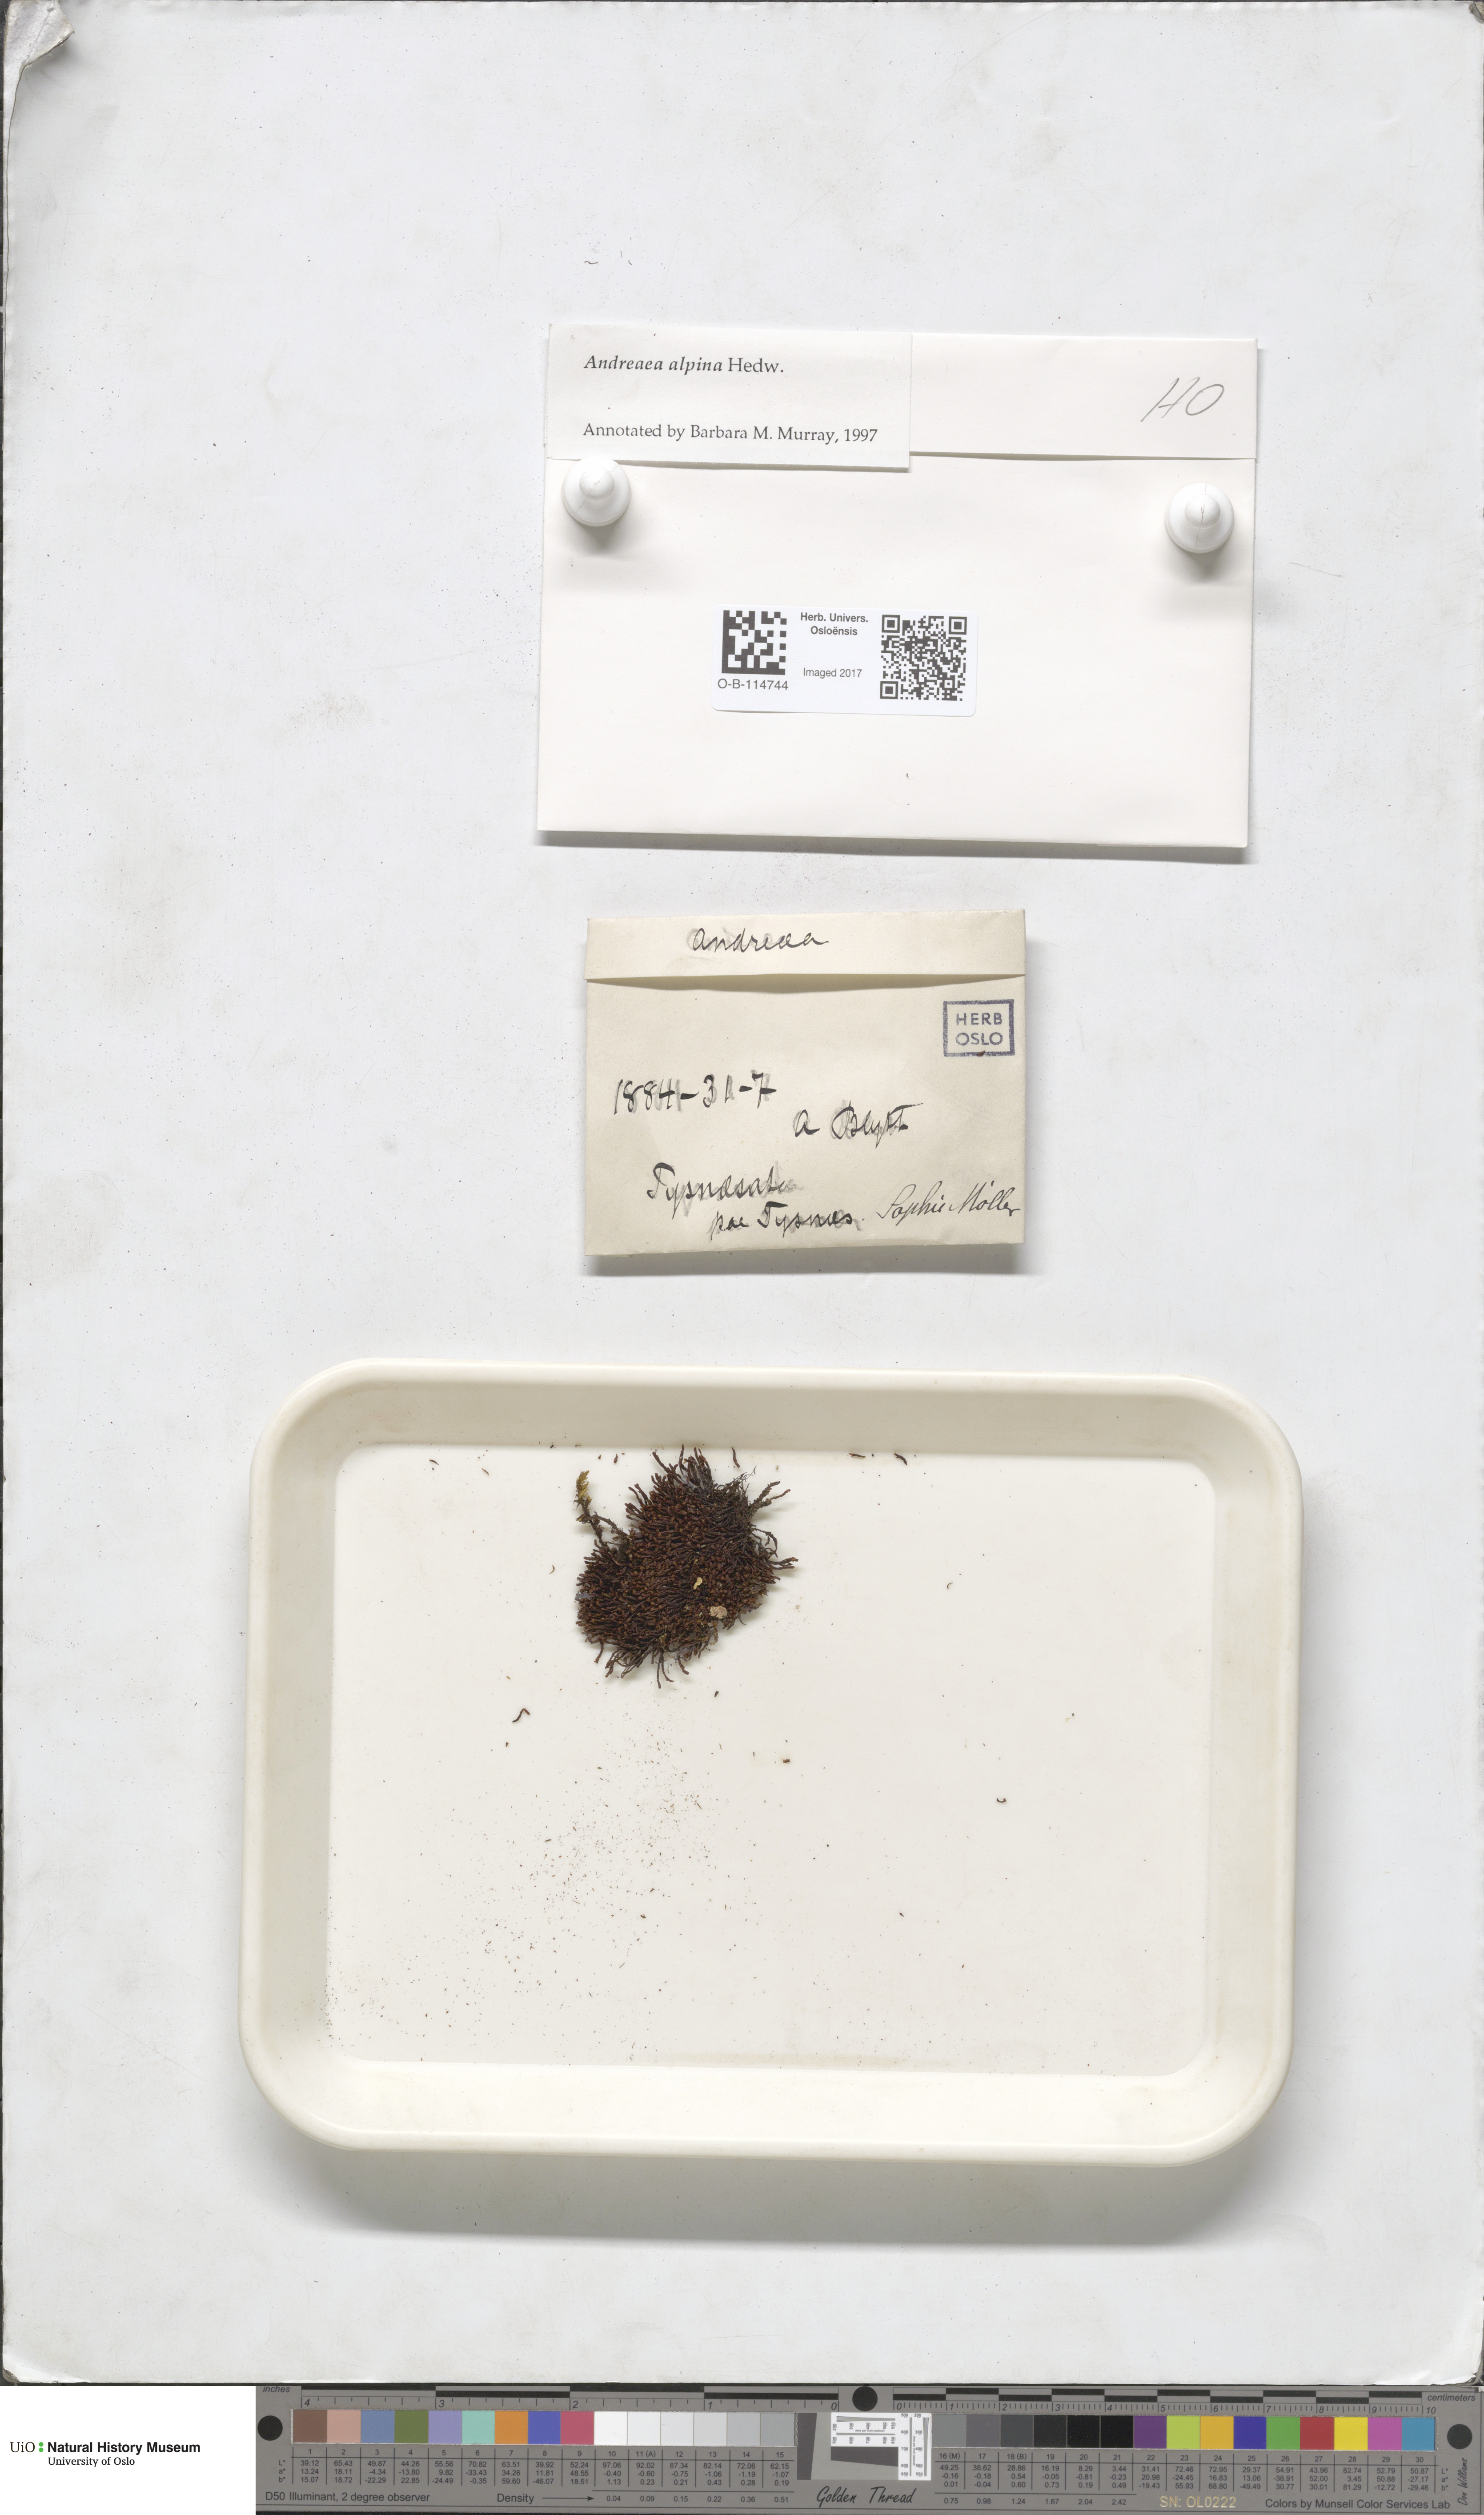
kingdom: Plantae
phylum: Bryophyta
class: Andreaeopsida
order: Andreaeales
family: Andreaeaceae
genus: Andreaea
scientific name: Andreaea hookeri
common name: Alpine rock-moss
